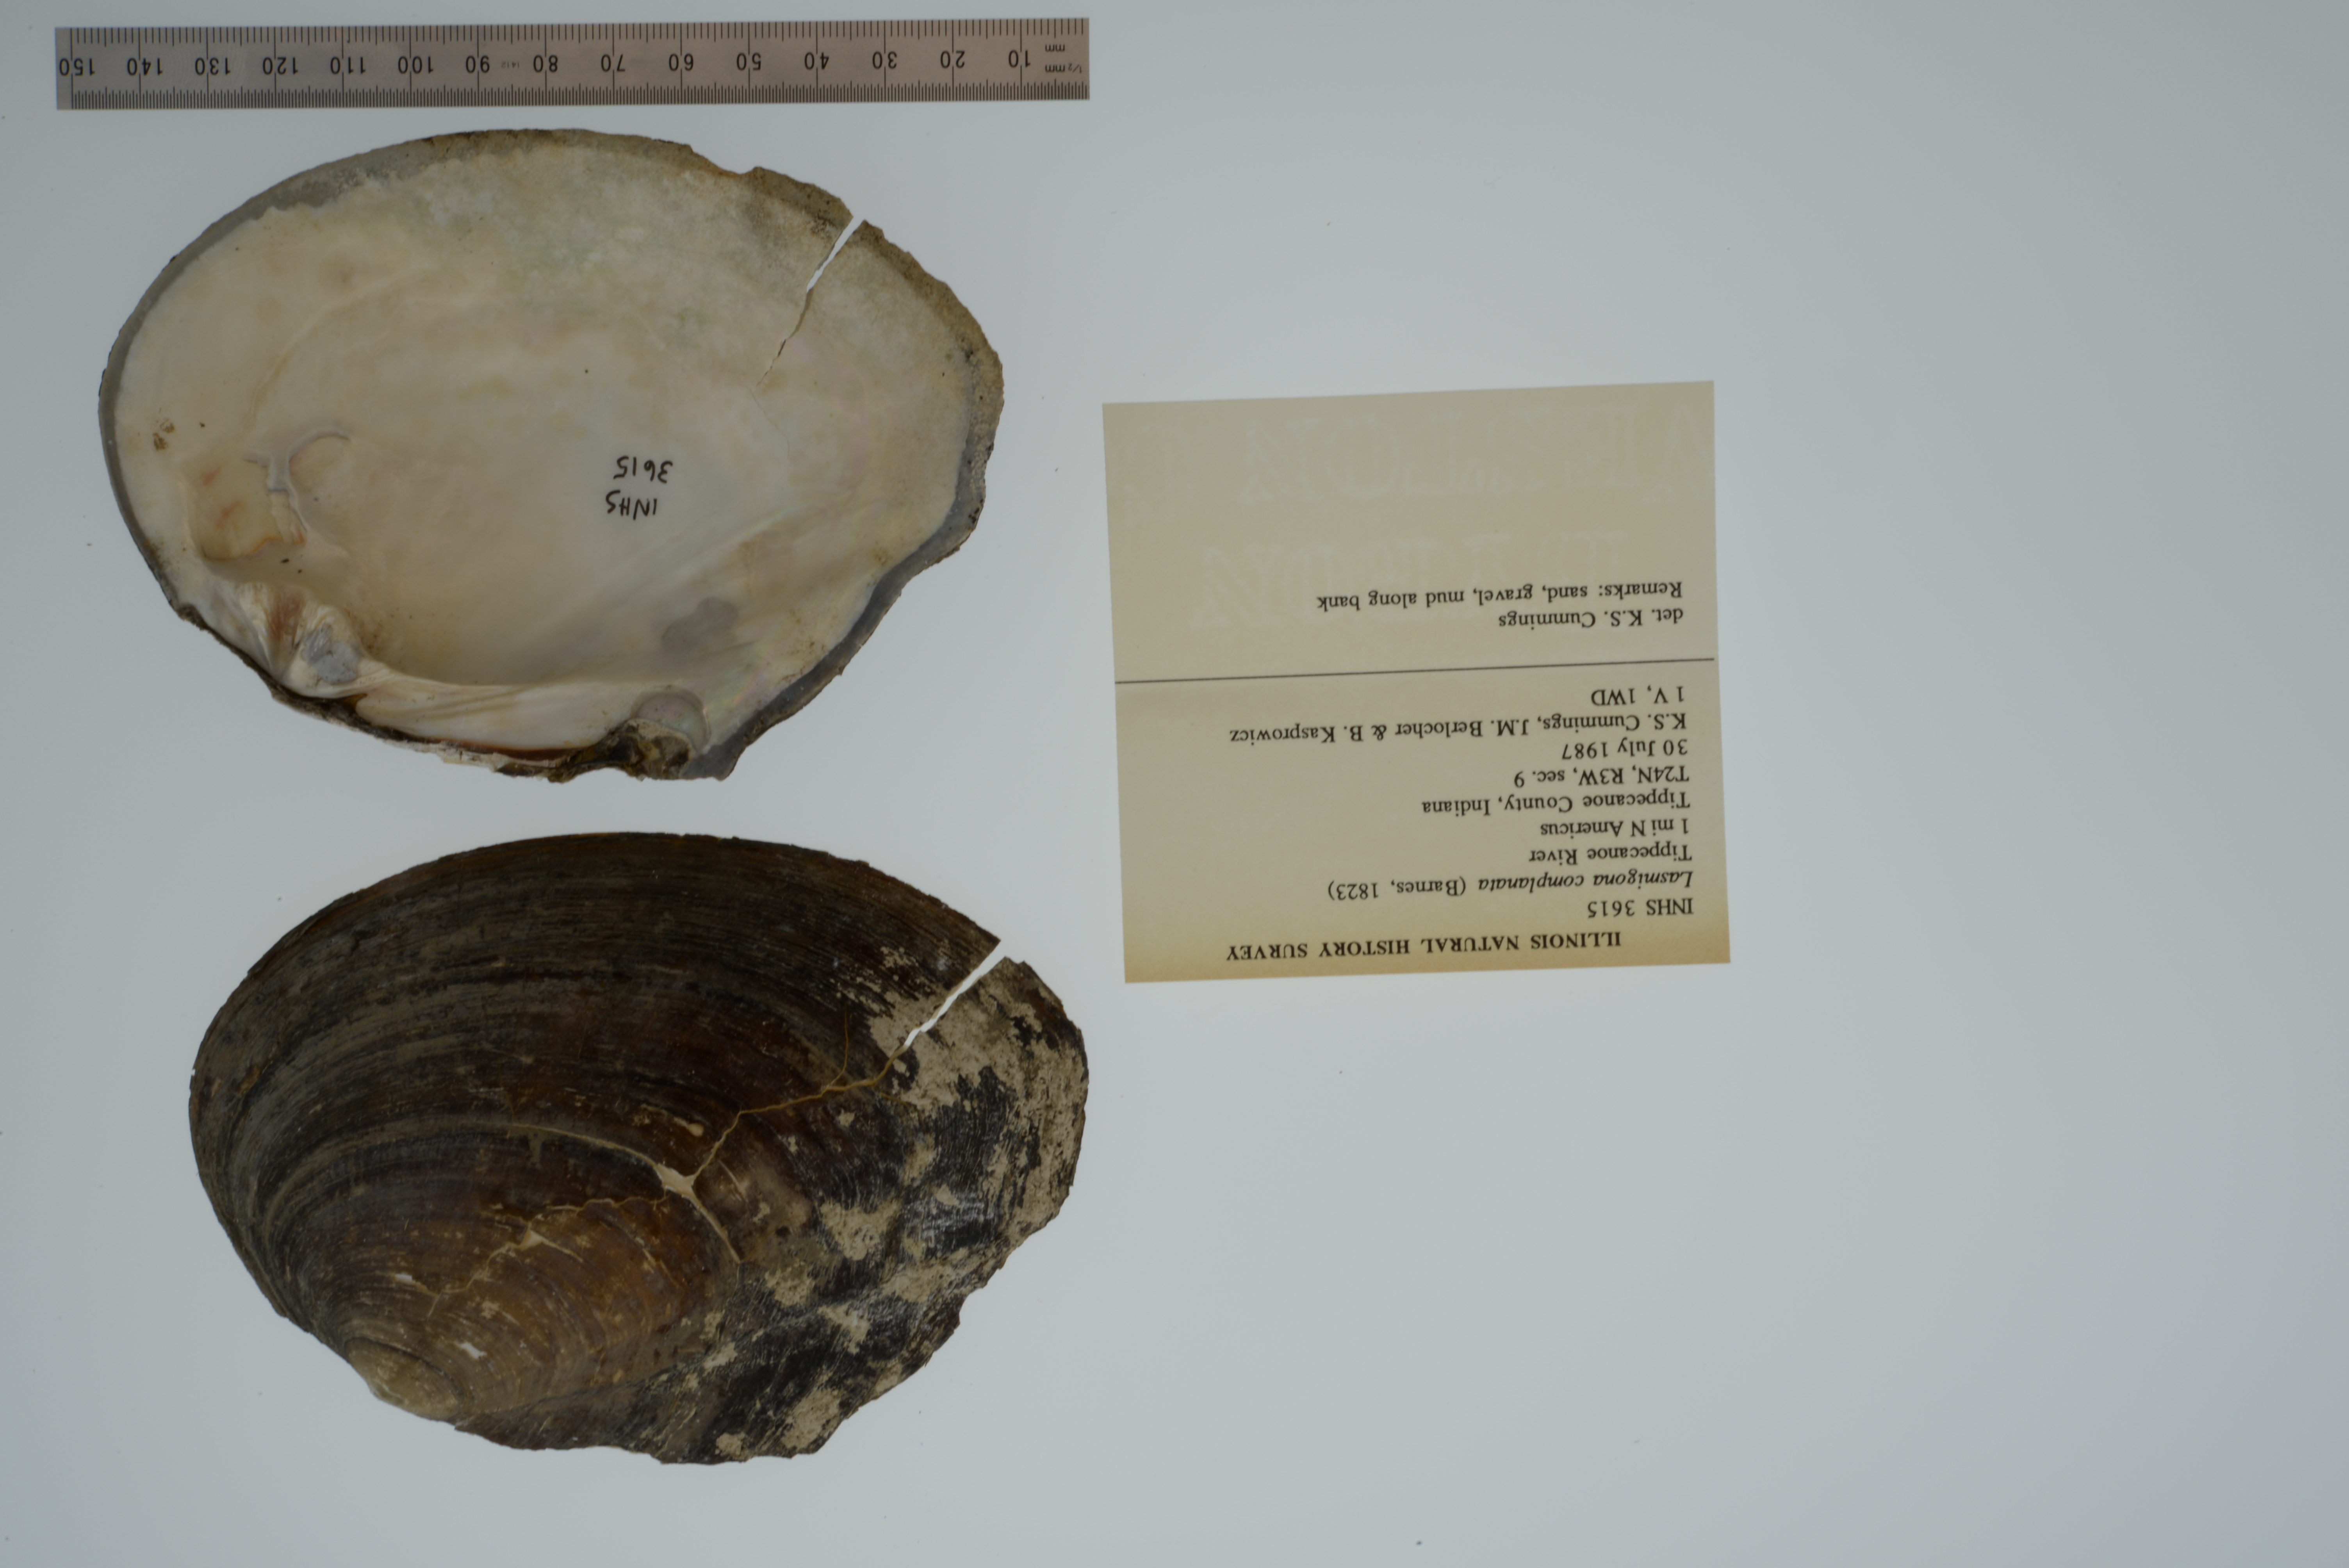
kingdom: Animalia
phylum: Mollusca
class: Bivalvia
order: Unionida
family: Unionidae
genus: Lasmigona
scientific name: Lasmigona complanata
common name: White heelsplitter
